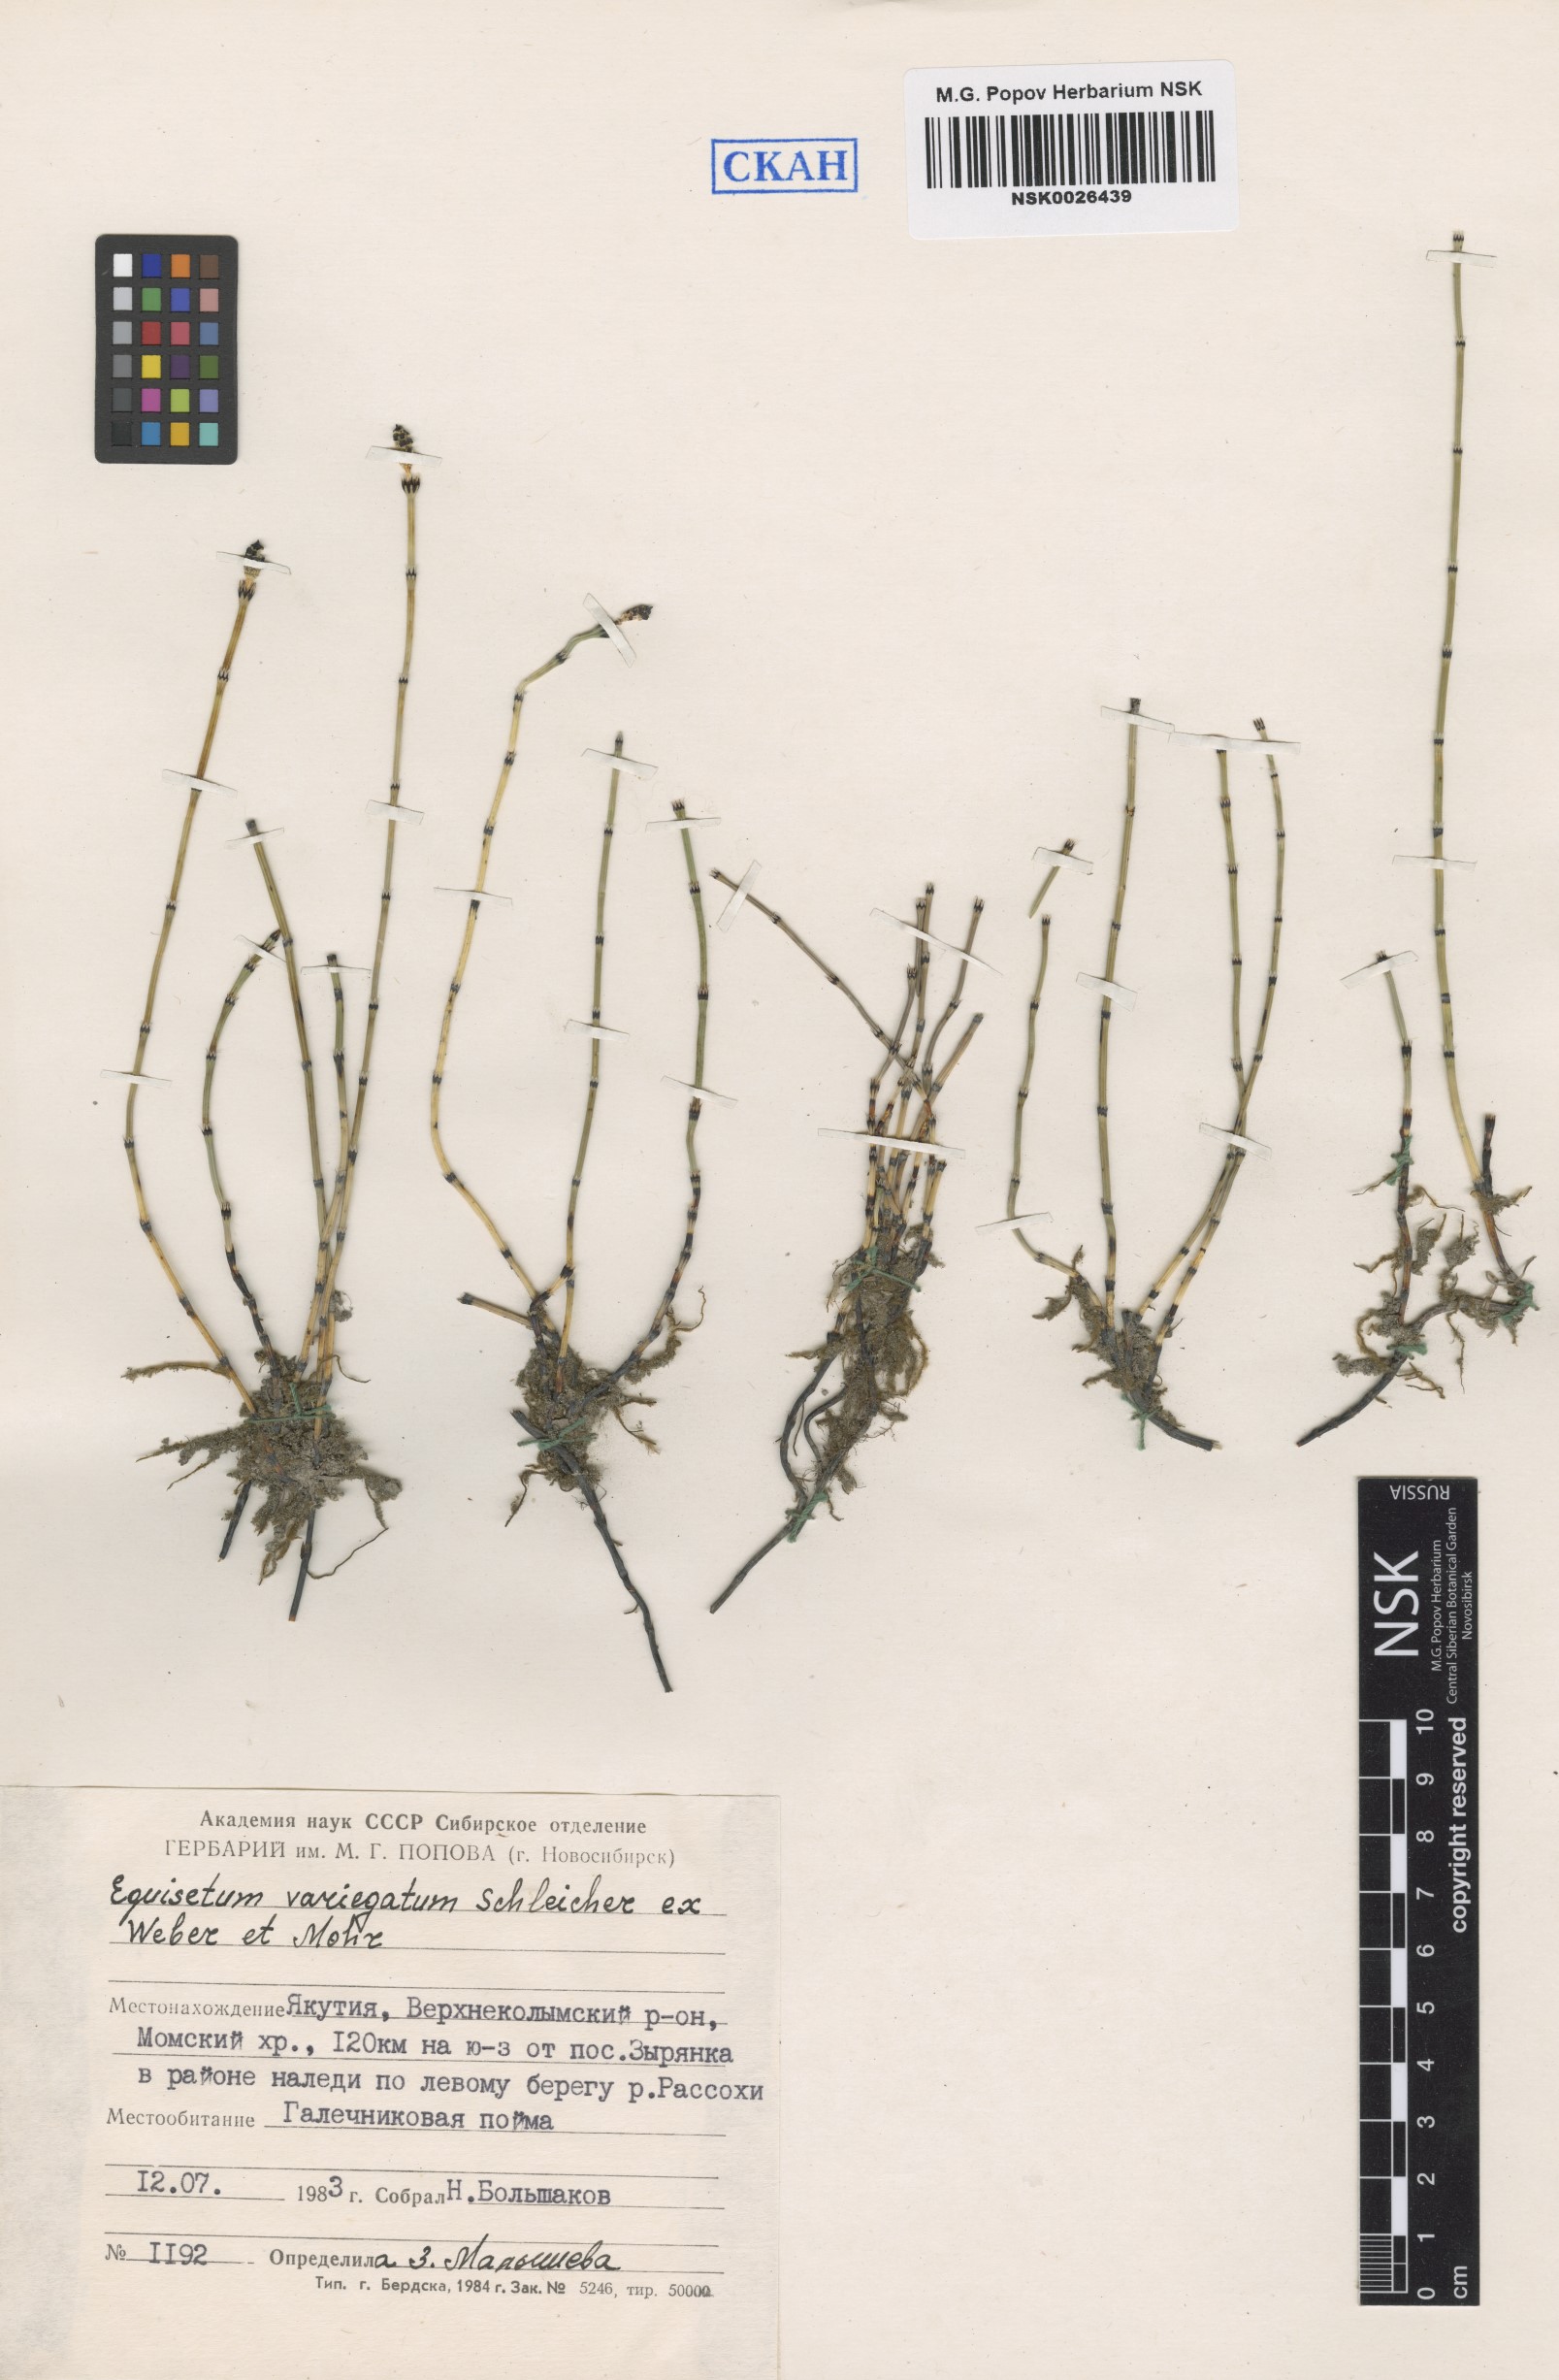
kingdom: Plantae
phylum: Tracheophyta
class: Polypodiopsida
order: Equisetales
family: Equisetaceae
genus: Equisetum
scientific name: Equisetum variegatum
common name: Variegated horsetail
